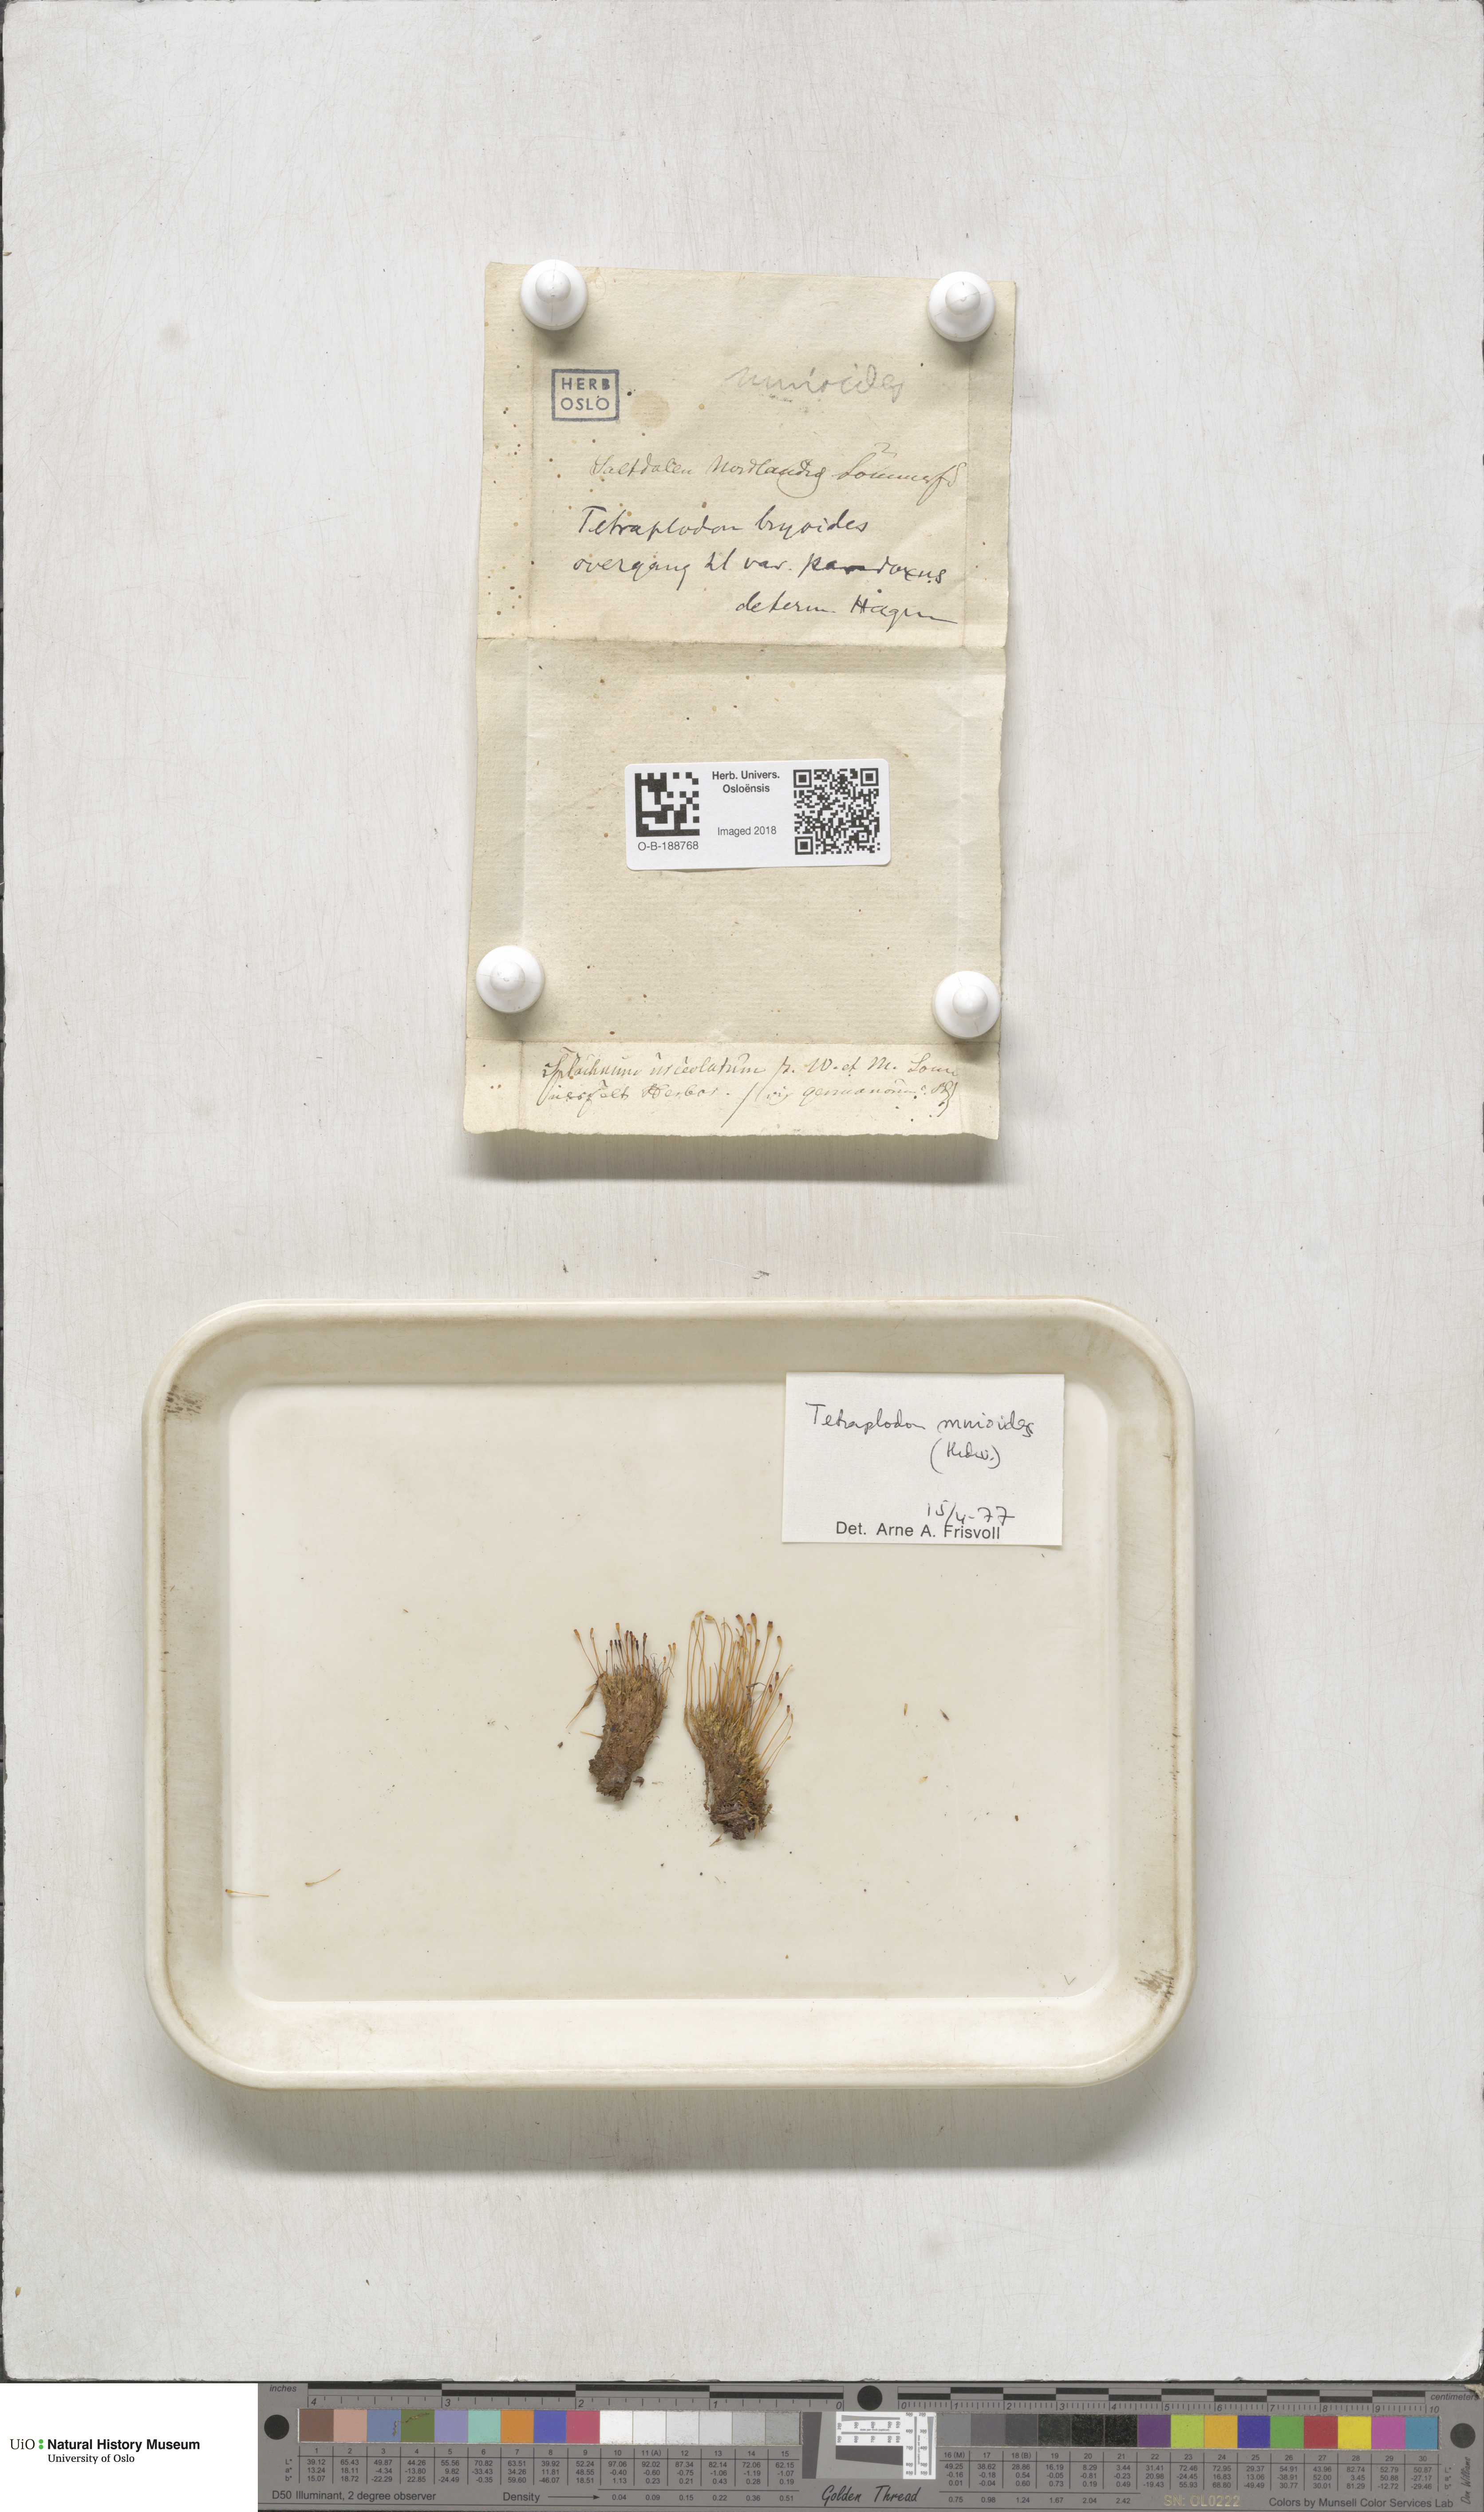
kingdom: Plantae
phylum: Bryophyta
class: Bryopsida
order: Splachnales
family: Splachnaceae
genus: Tetraplodon
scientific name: Tetraplodon mnioides
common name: Entire-leaved nitrogen moss
